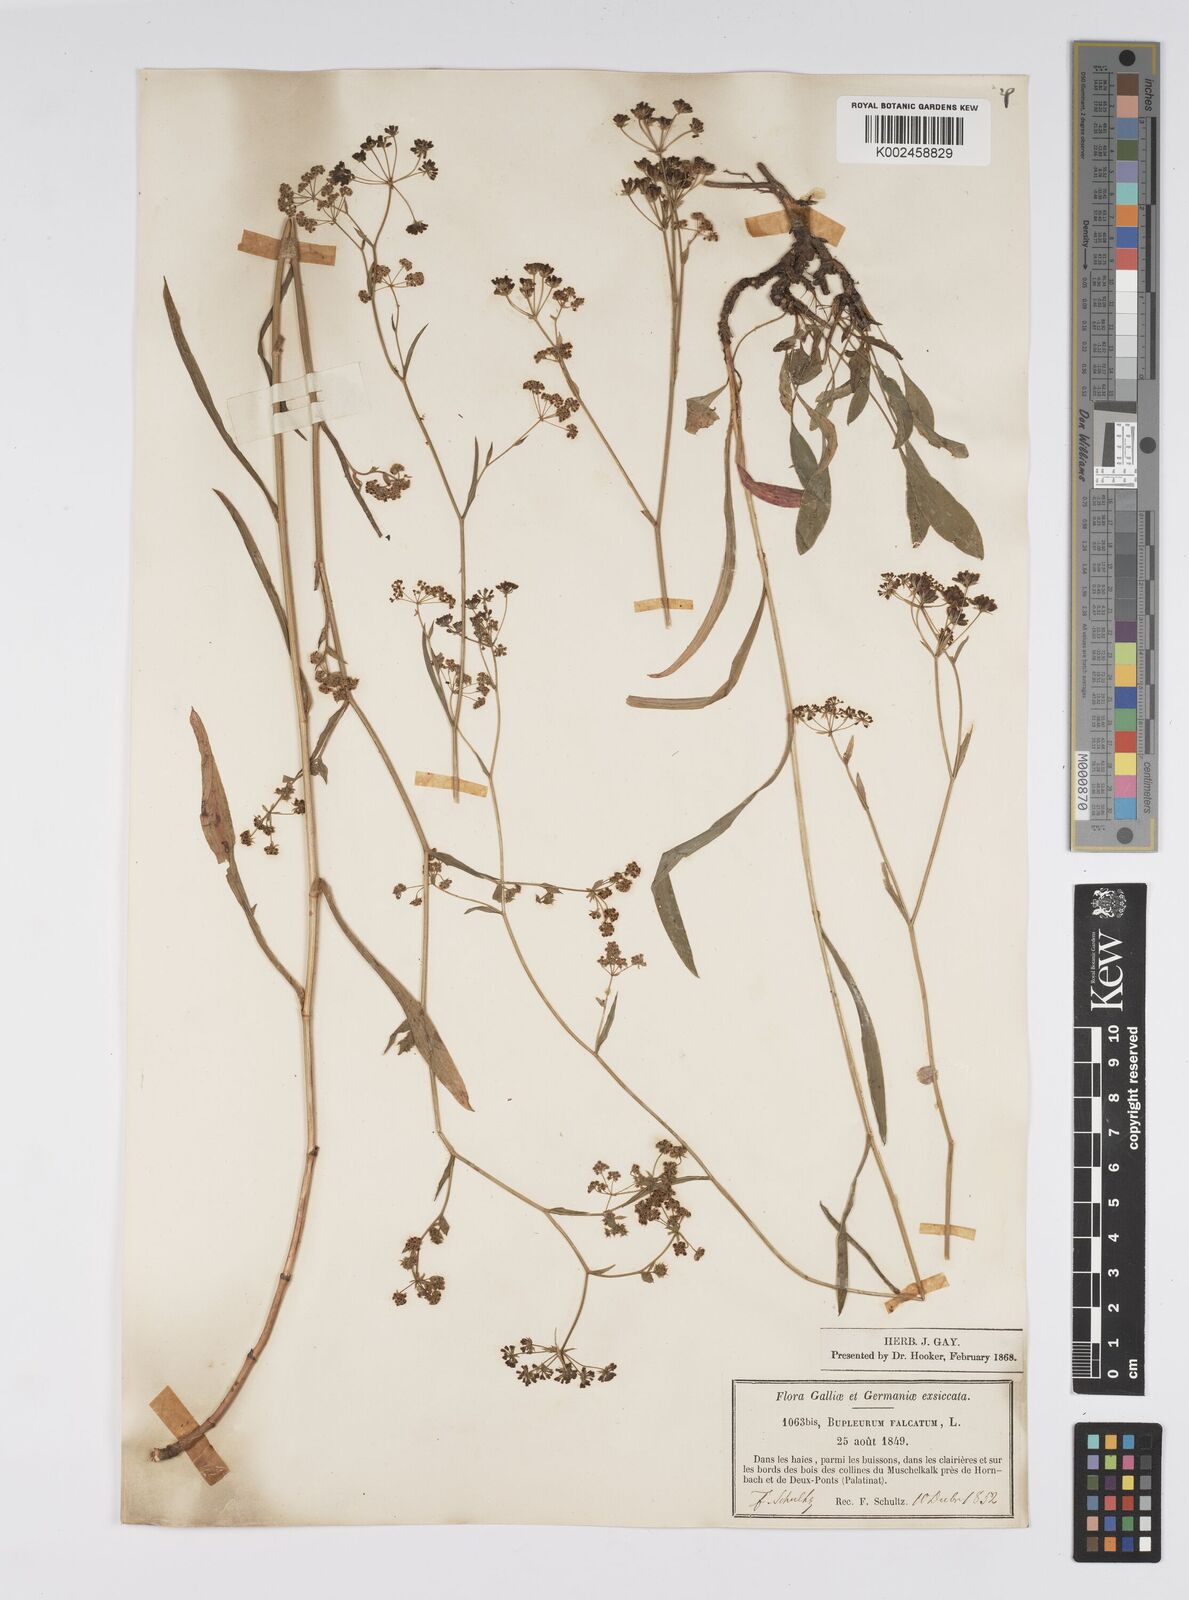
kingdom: Plantae
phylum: Tracheophyta
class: Magnoliopsida
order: Apiales
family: Apiaceae
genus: Bupleurum
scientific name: Bupleurum falcatum
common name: Sickle-leaved hare's-ear
